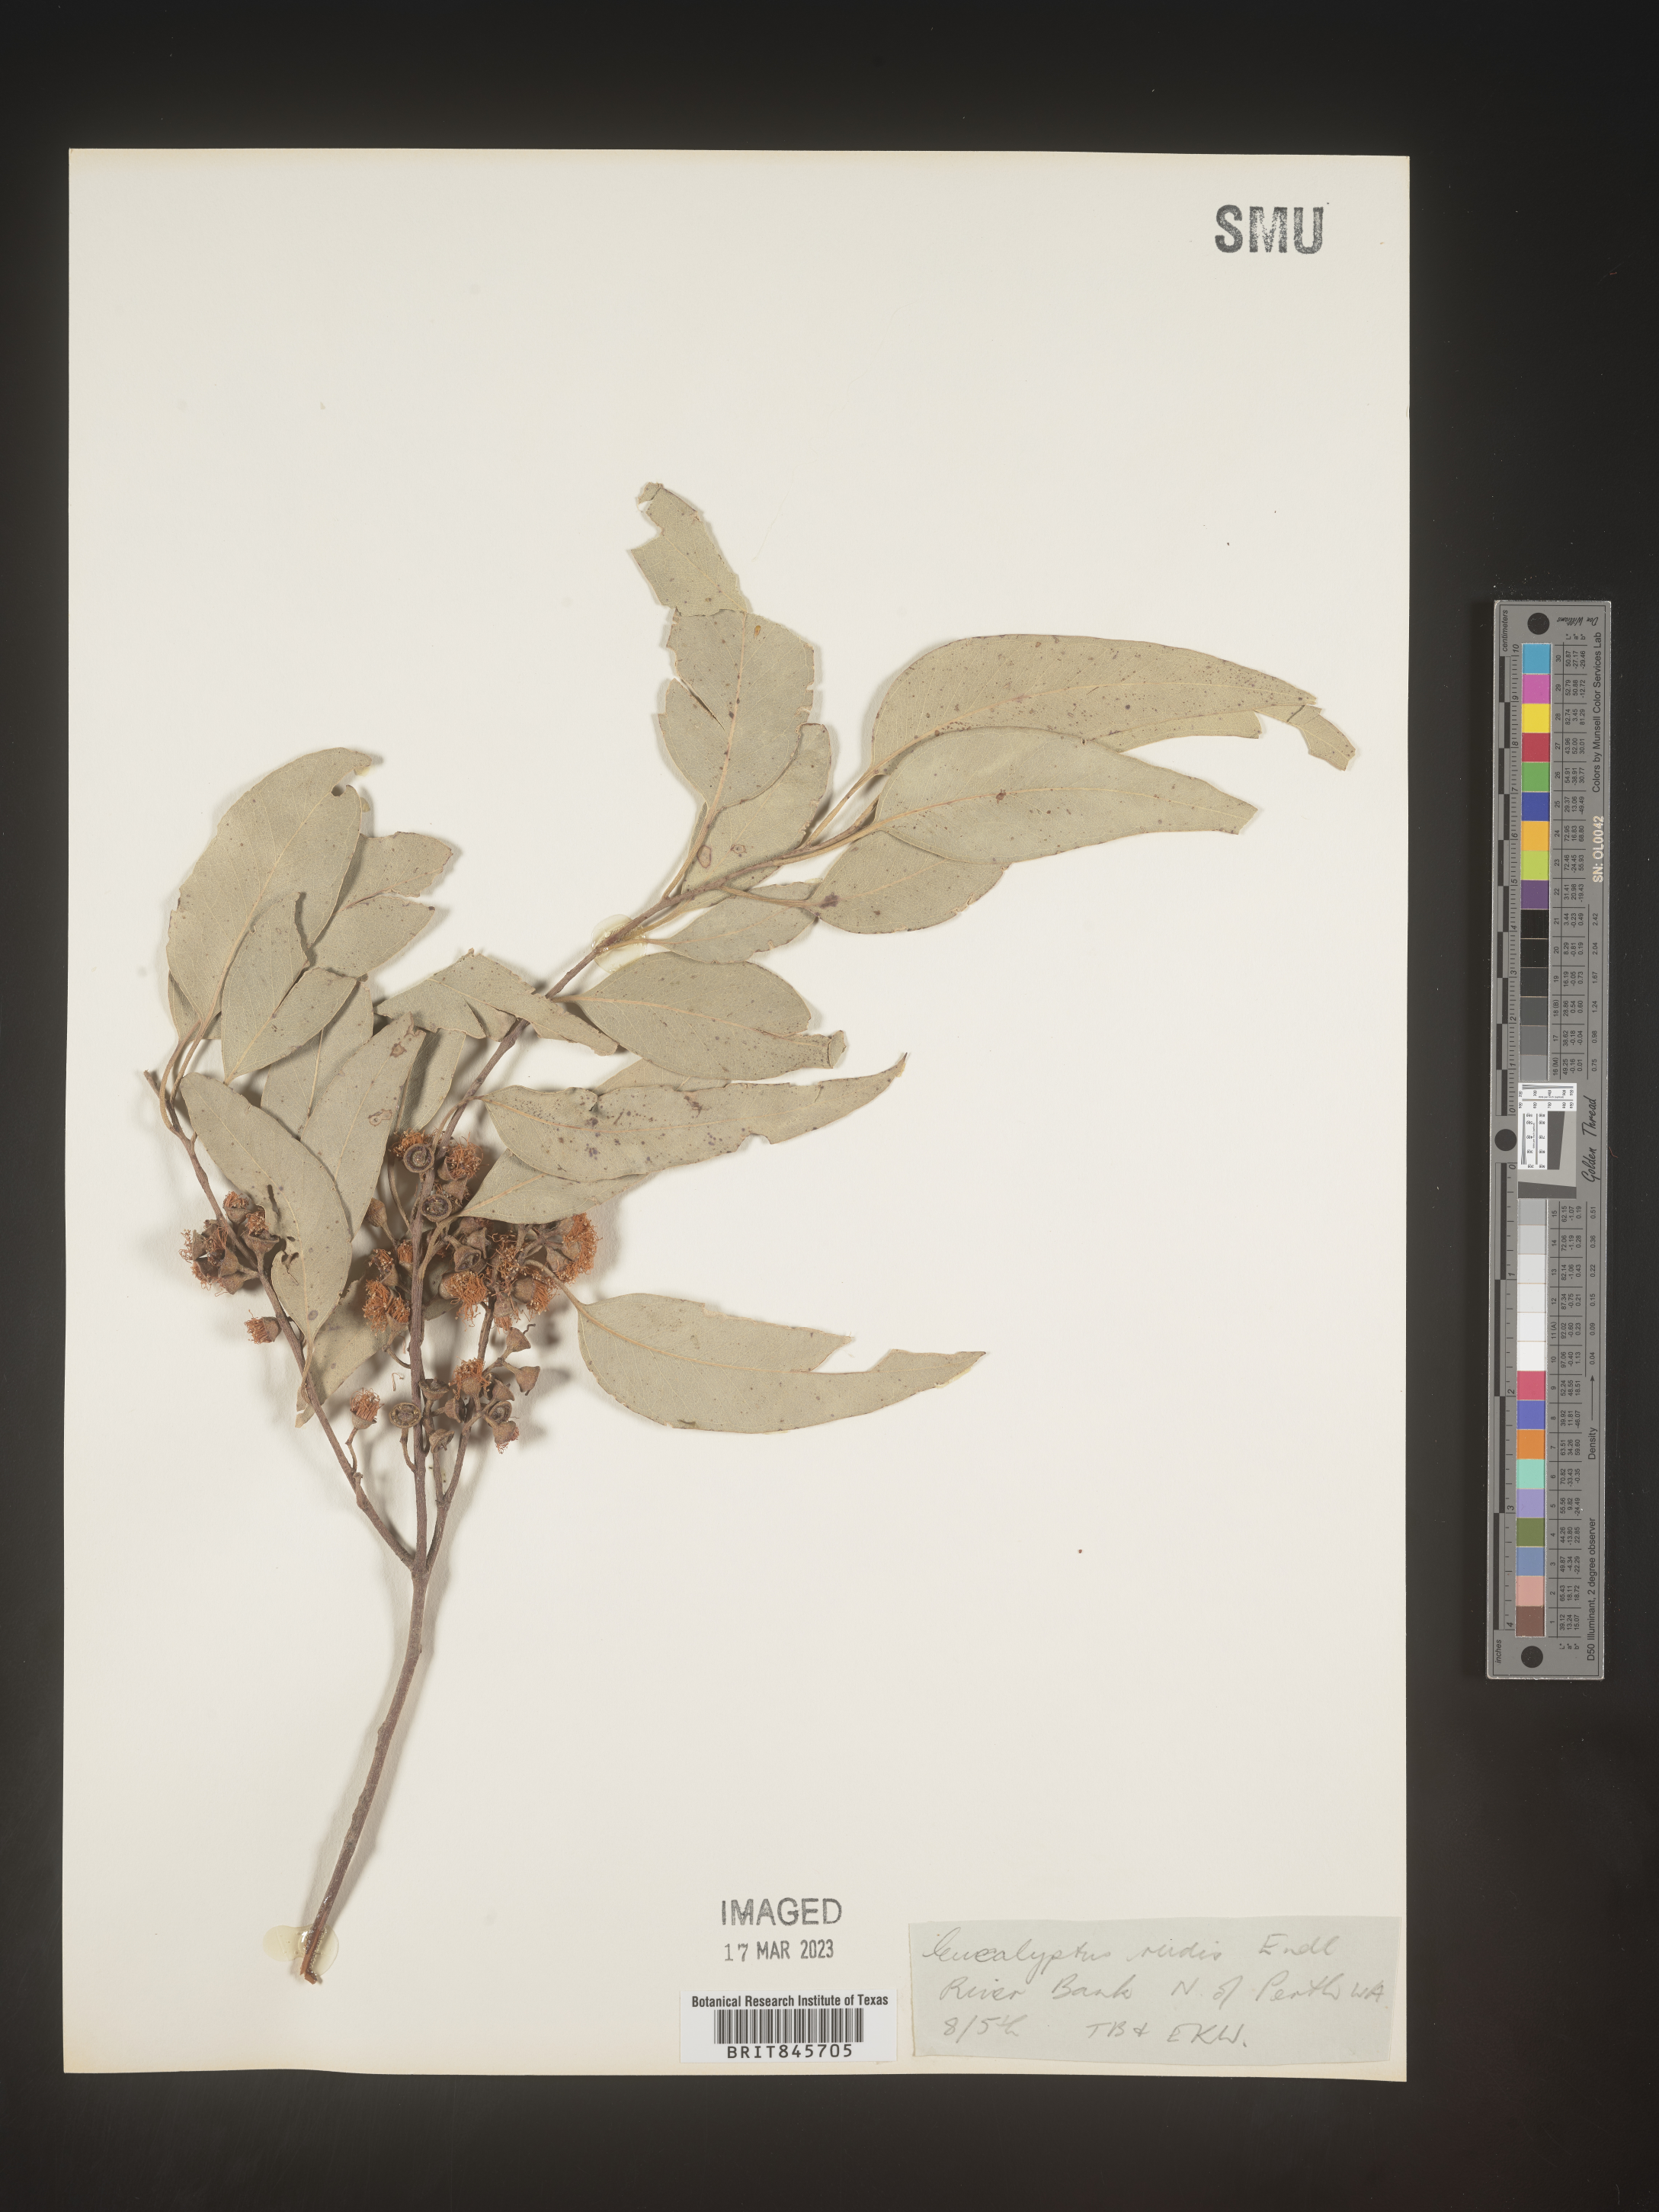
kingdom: Plantae
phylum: Tracheophyta
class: Magnoliopsida
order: Myrtales
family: Myrtaceae
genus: Eucalyptus
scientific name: Eucalyptus
